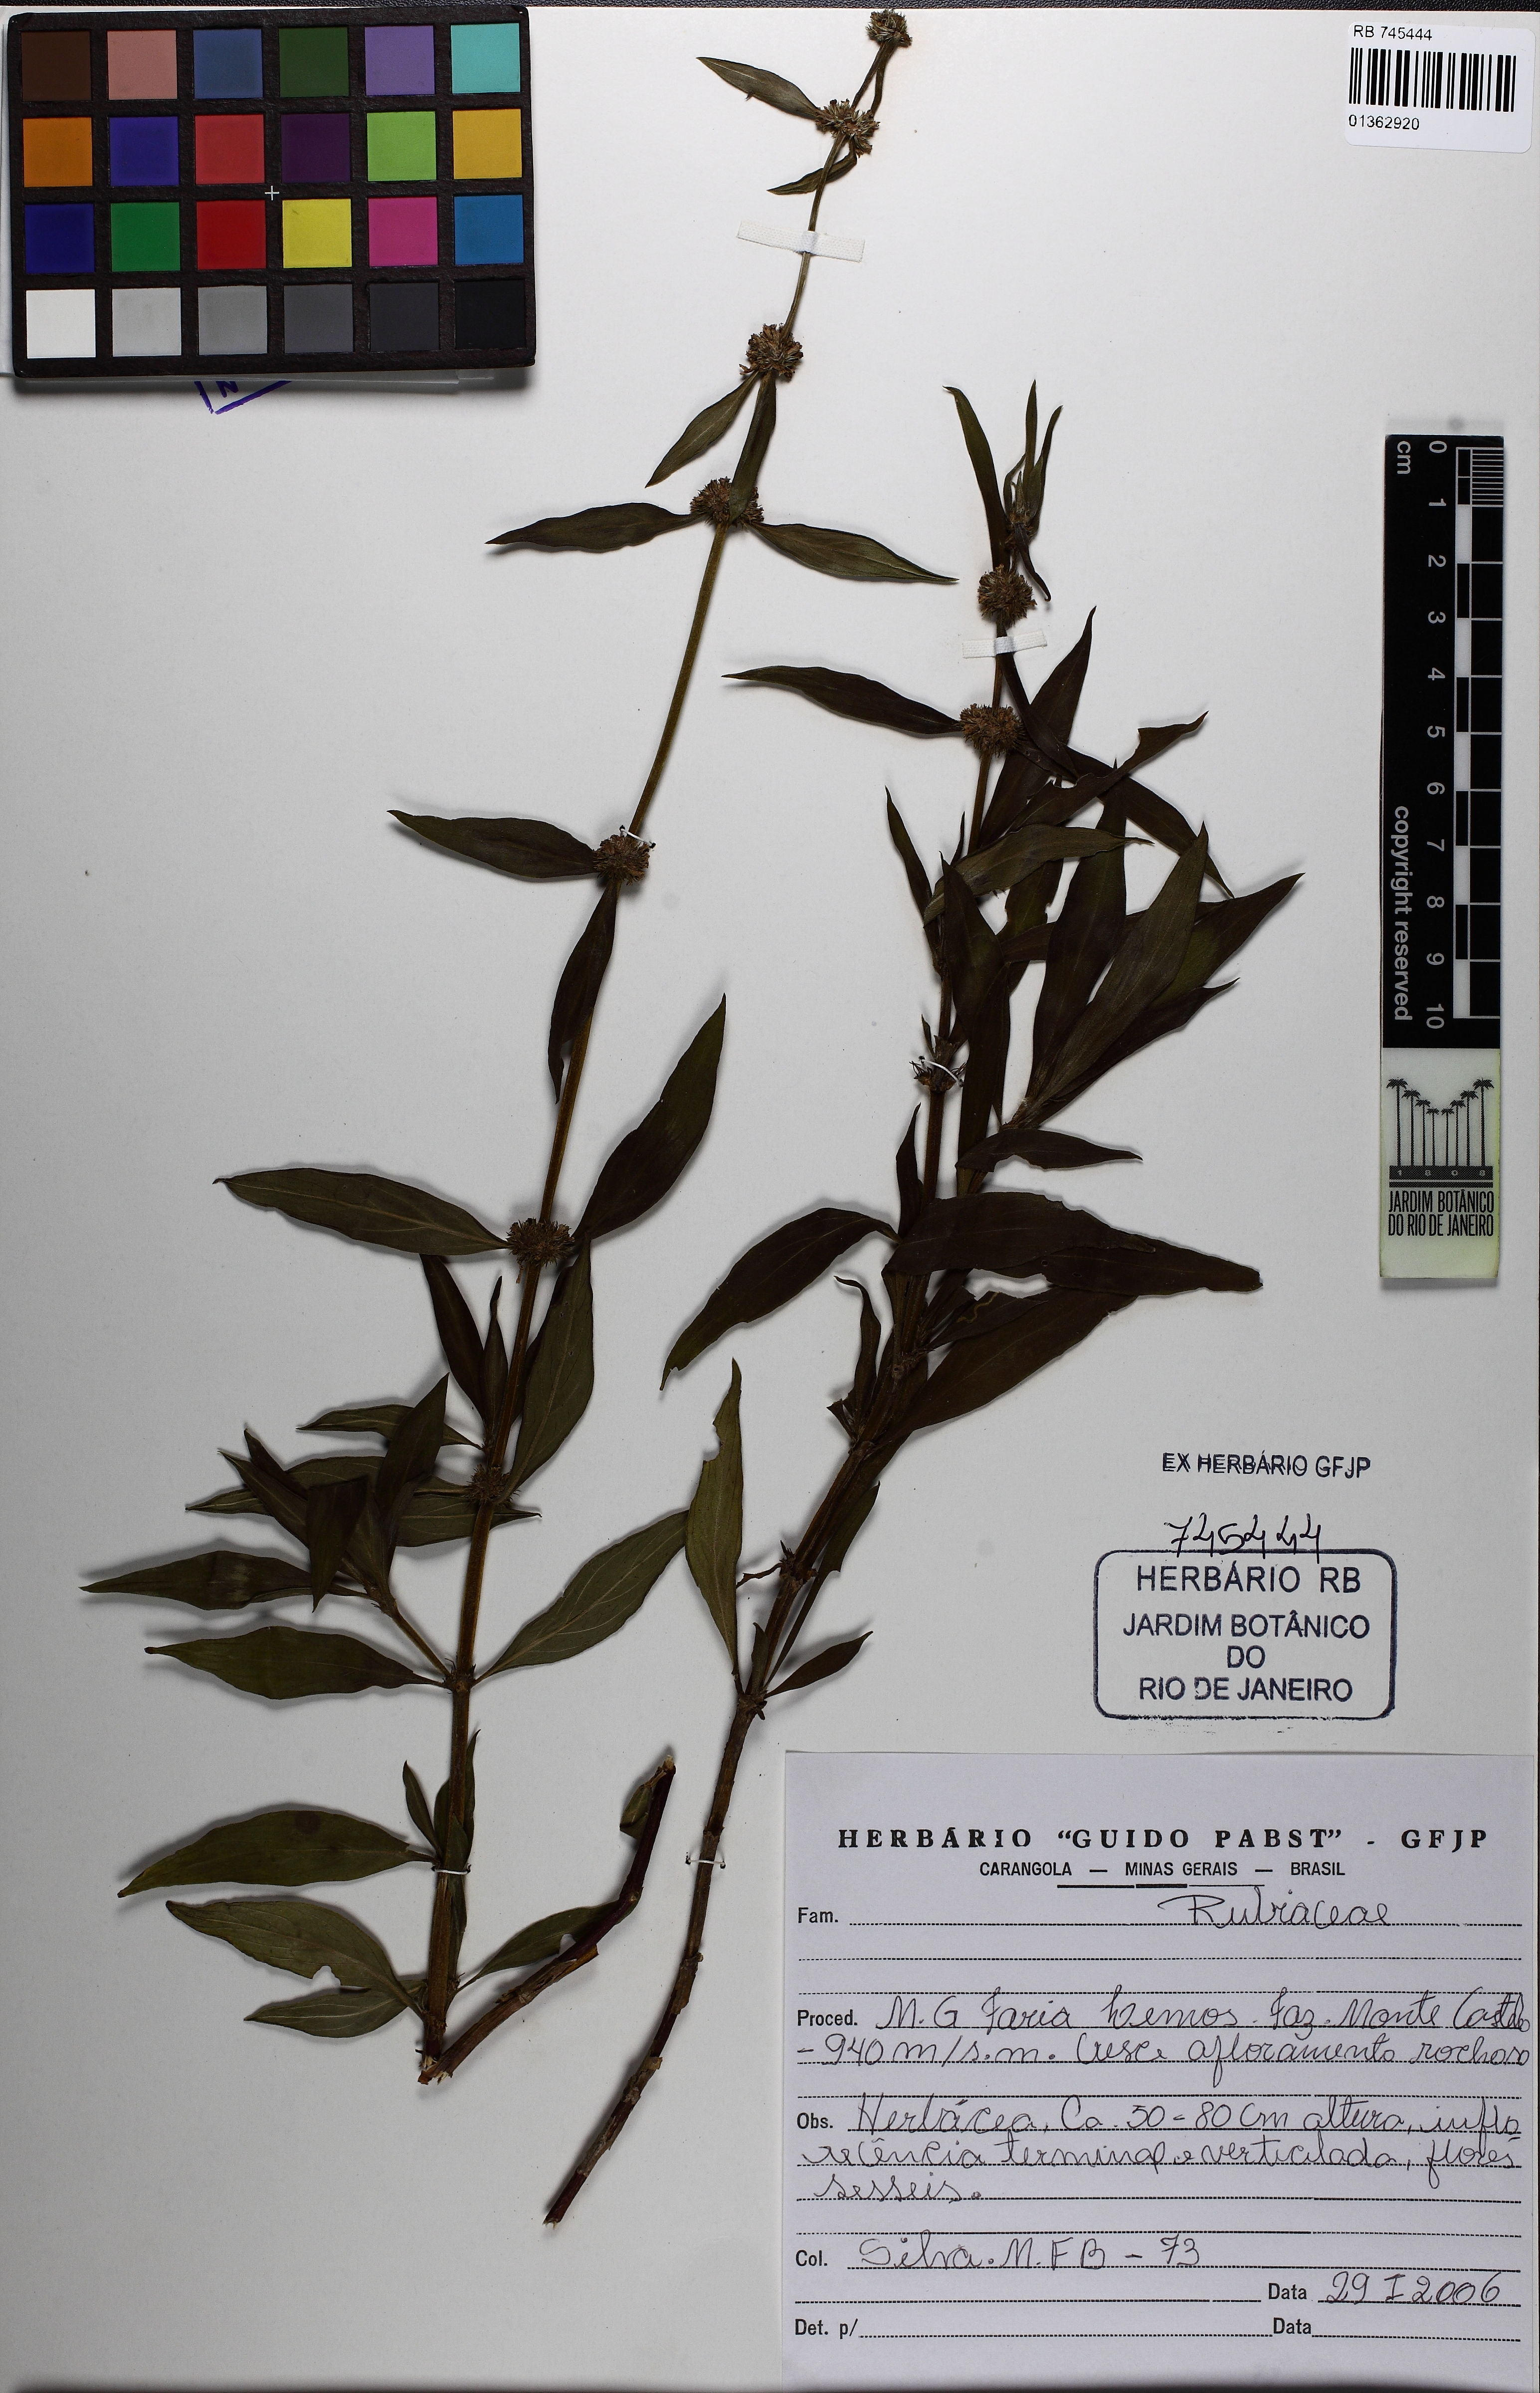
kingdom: Plantae
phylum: Tracheophyta
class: Magnoliopsida
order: Gentianales
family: Rubiaceae
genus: Mitracarpus
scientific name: Mitracarpus
